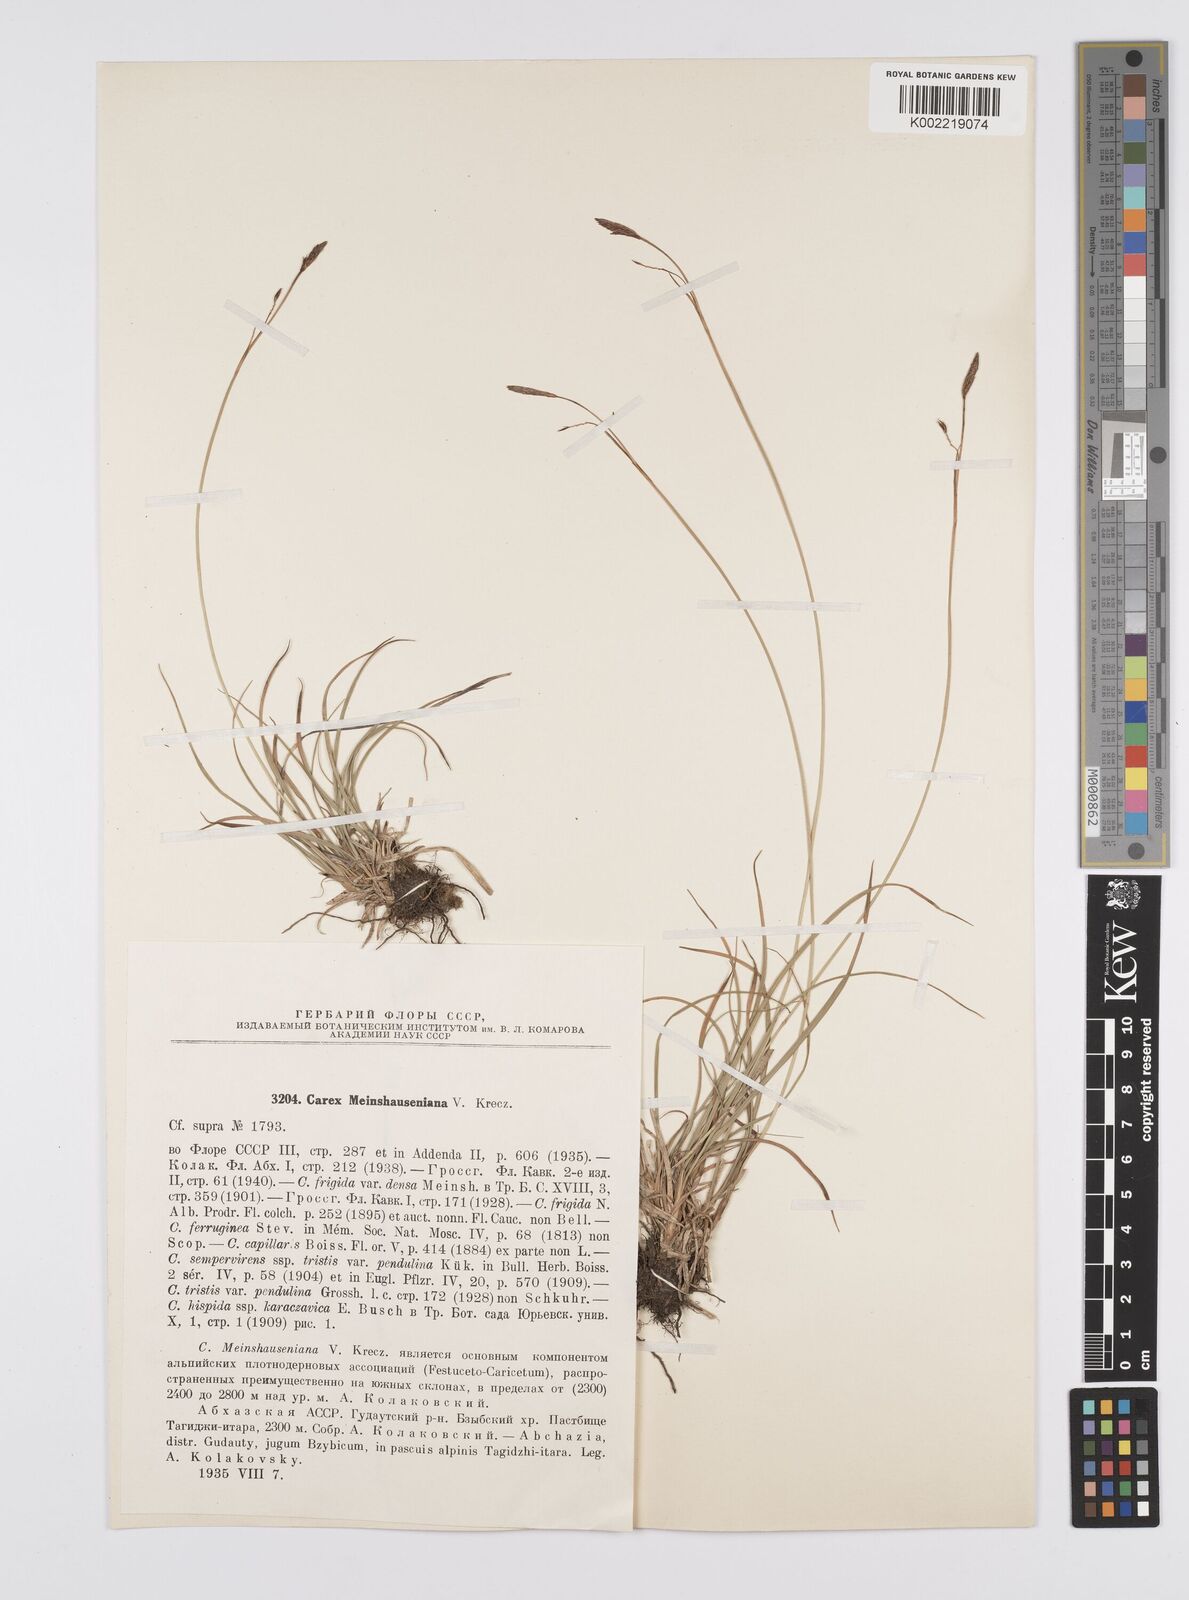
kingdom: Plantae
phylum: Tracheophyta
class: Liliopsida
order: Poales
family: Cyperaceae
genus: Carex
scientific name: Carex tristis
